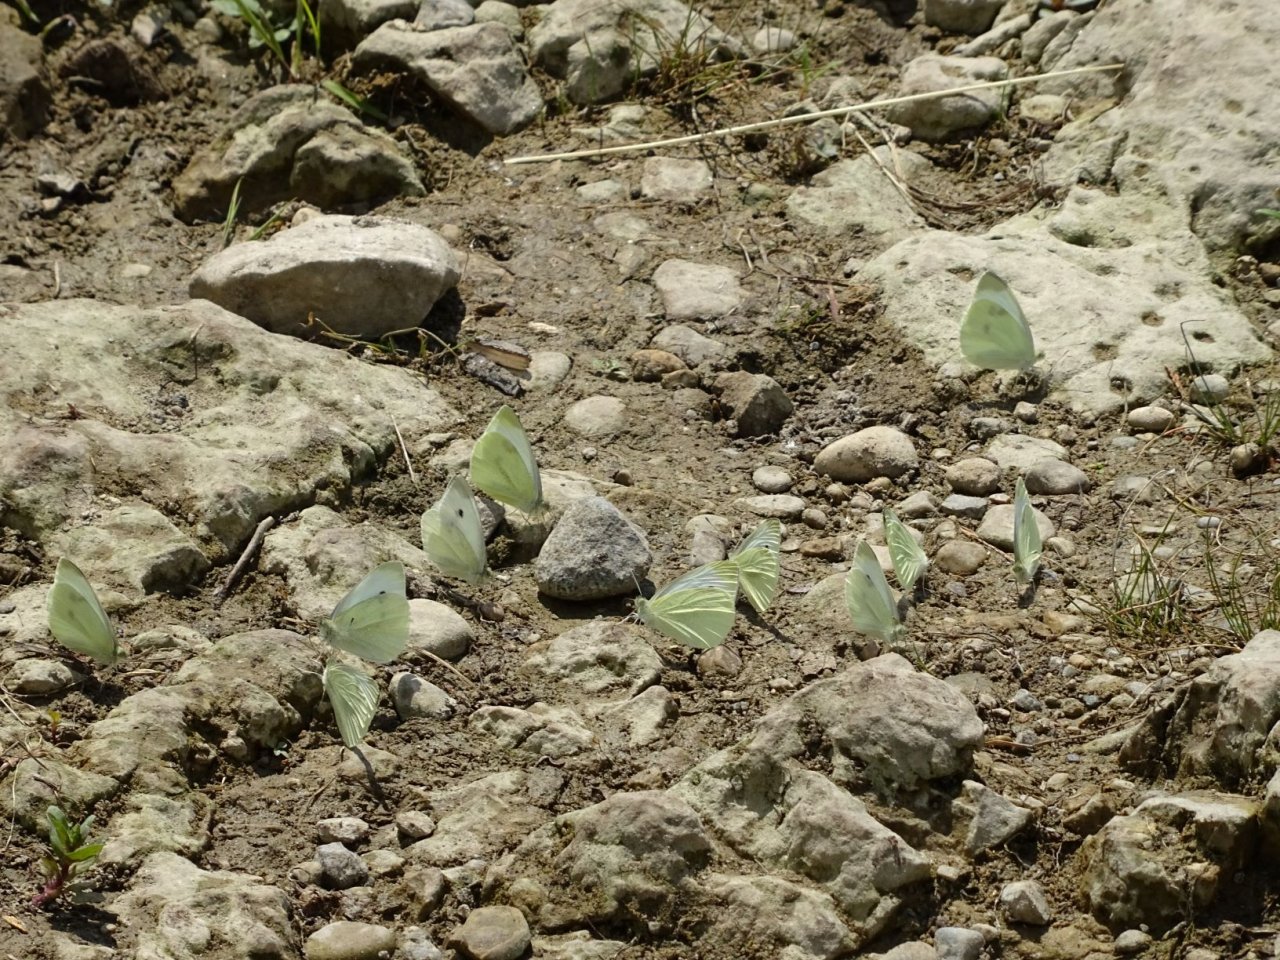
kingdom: Animalia
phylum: Arthropoda
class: Insecta
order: Lepidoptera
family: Pieridae
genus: Pieris
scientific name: Pieris rapae
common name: Cabbage White
